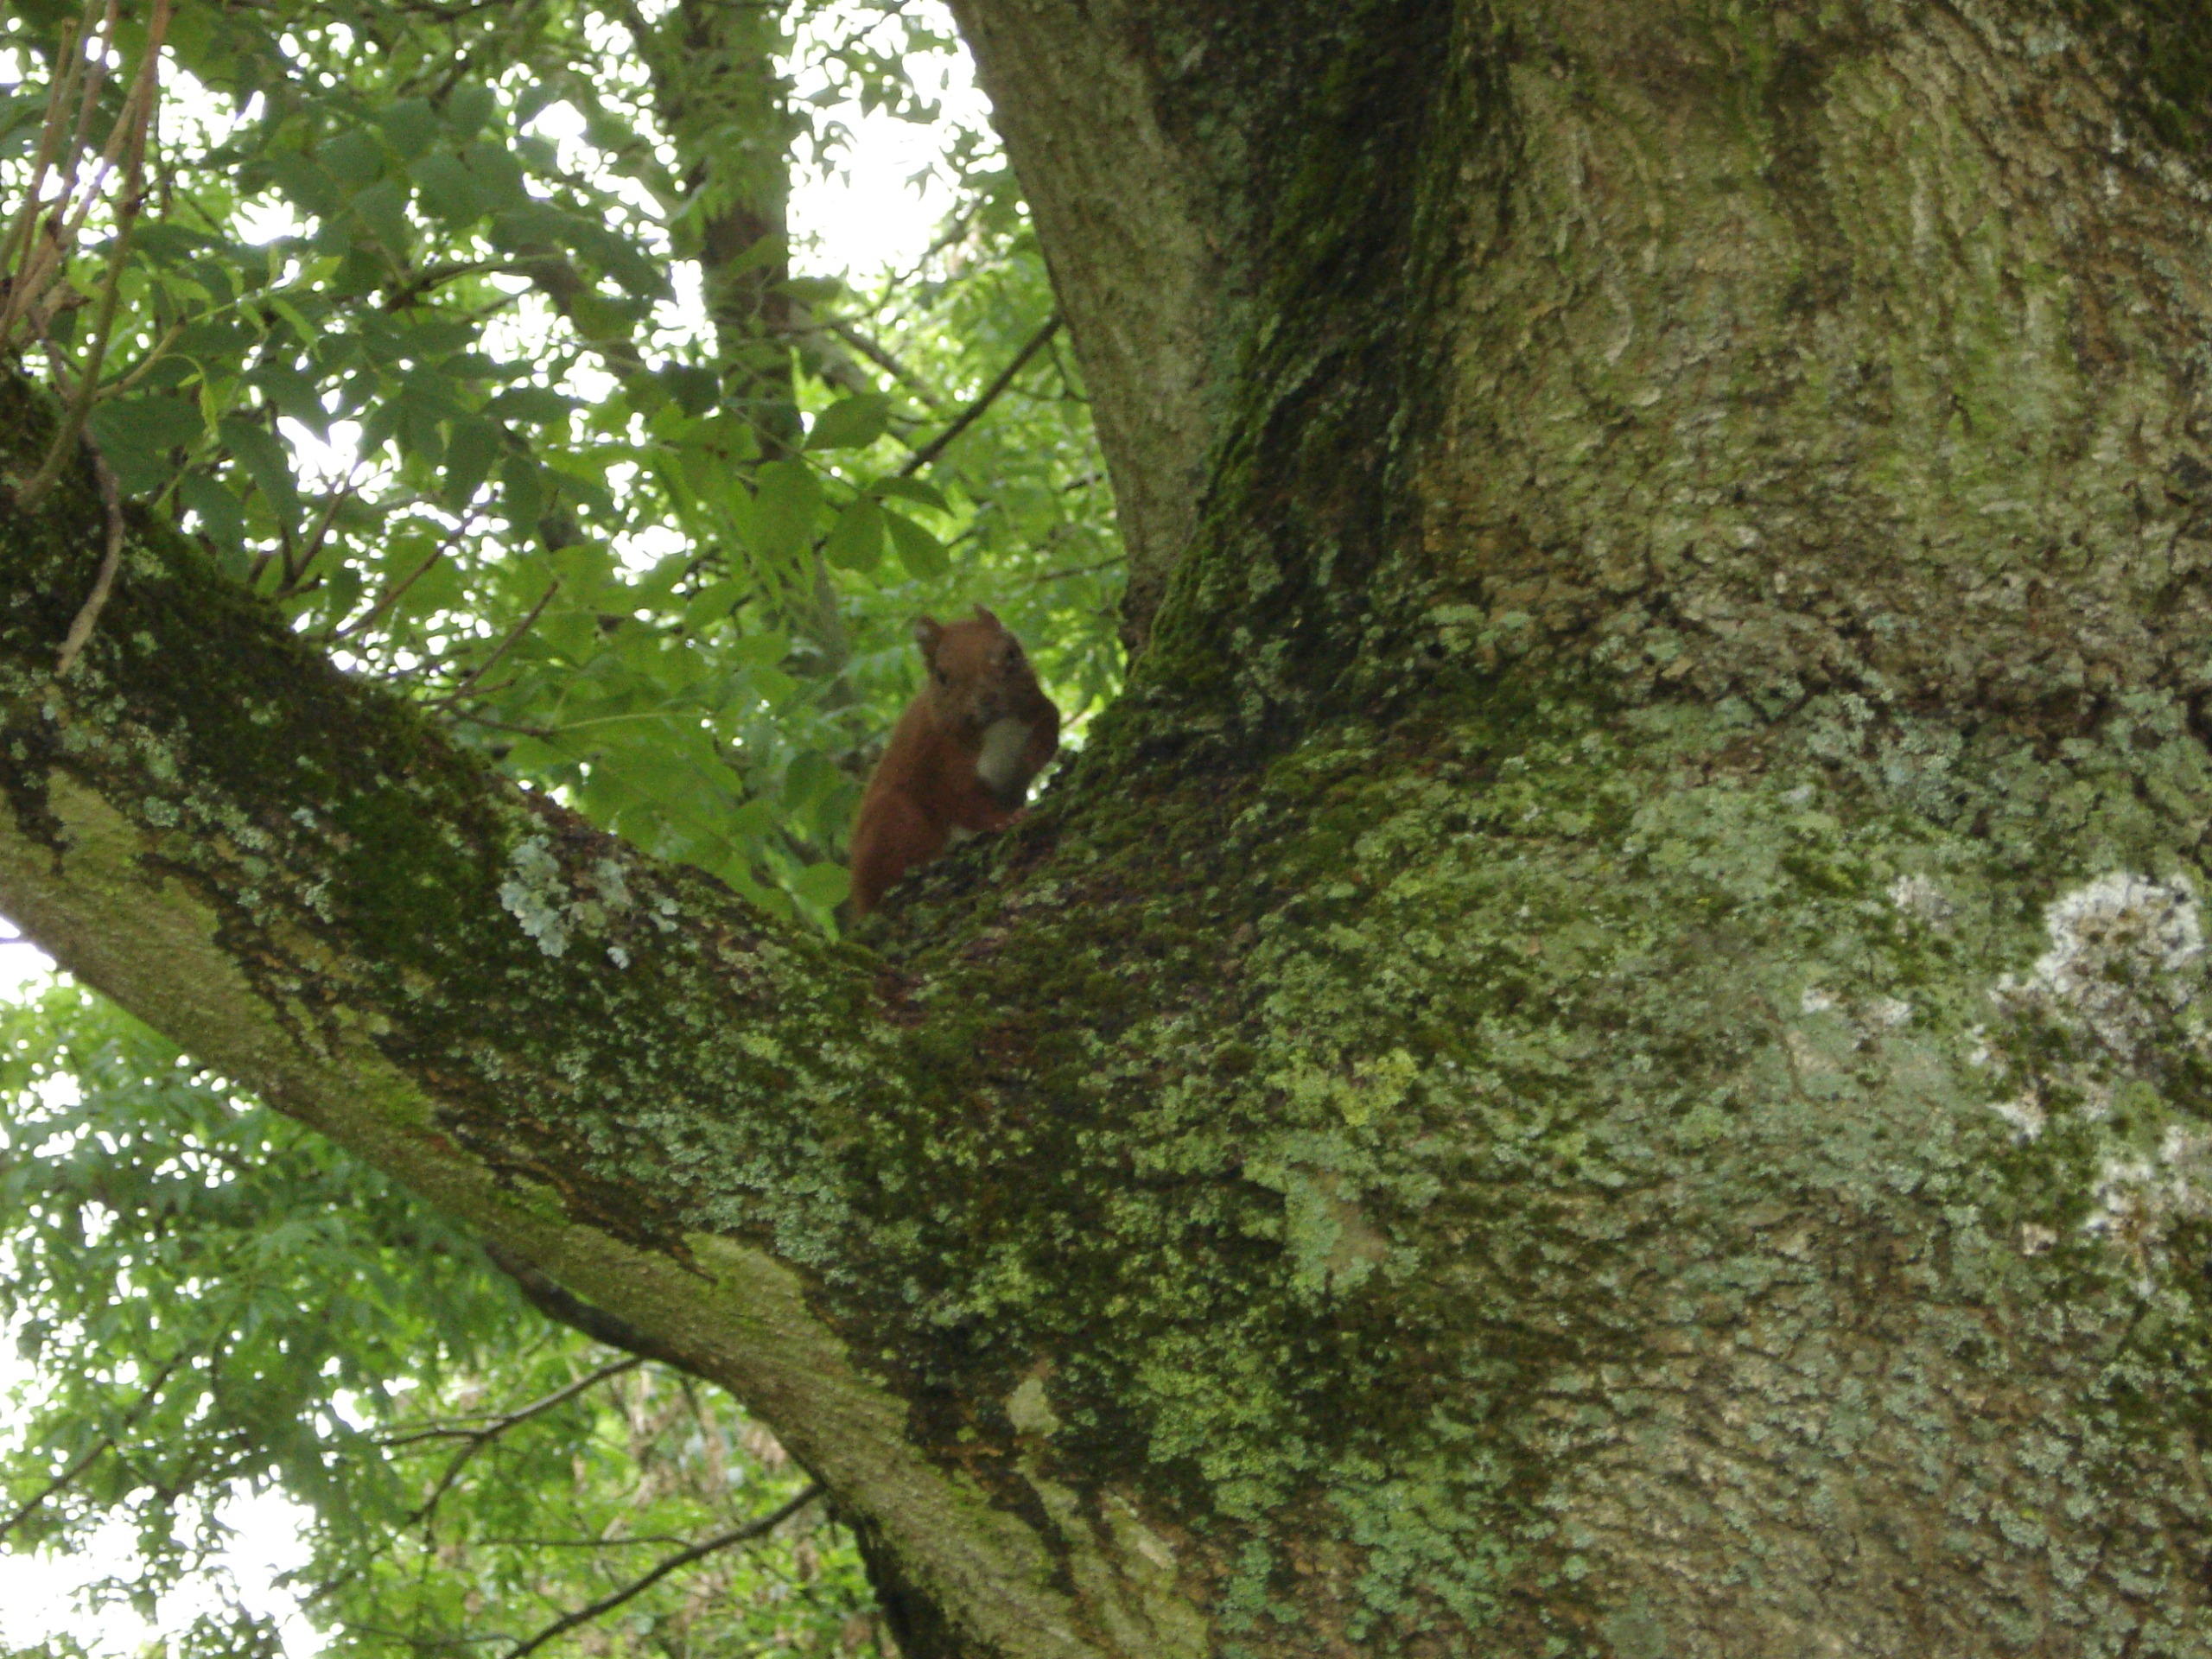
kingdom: Animalia
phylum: Chordata
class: Mammalia
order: Rodentia
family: Sciuridae
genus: Sciurus
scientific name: Sciurus vulgaris
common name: Egern
